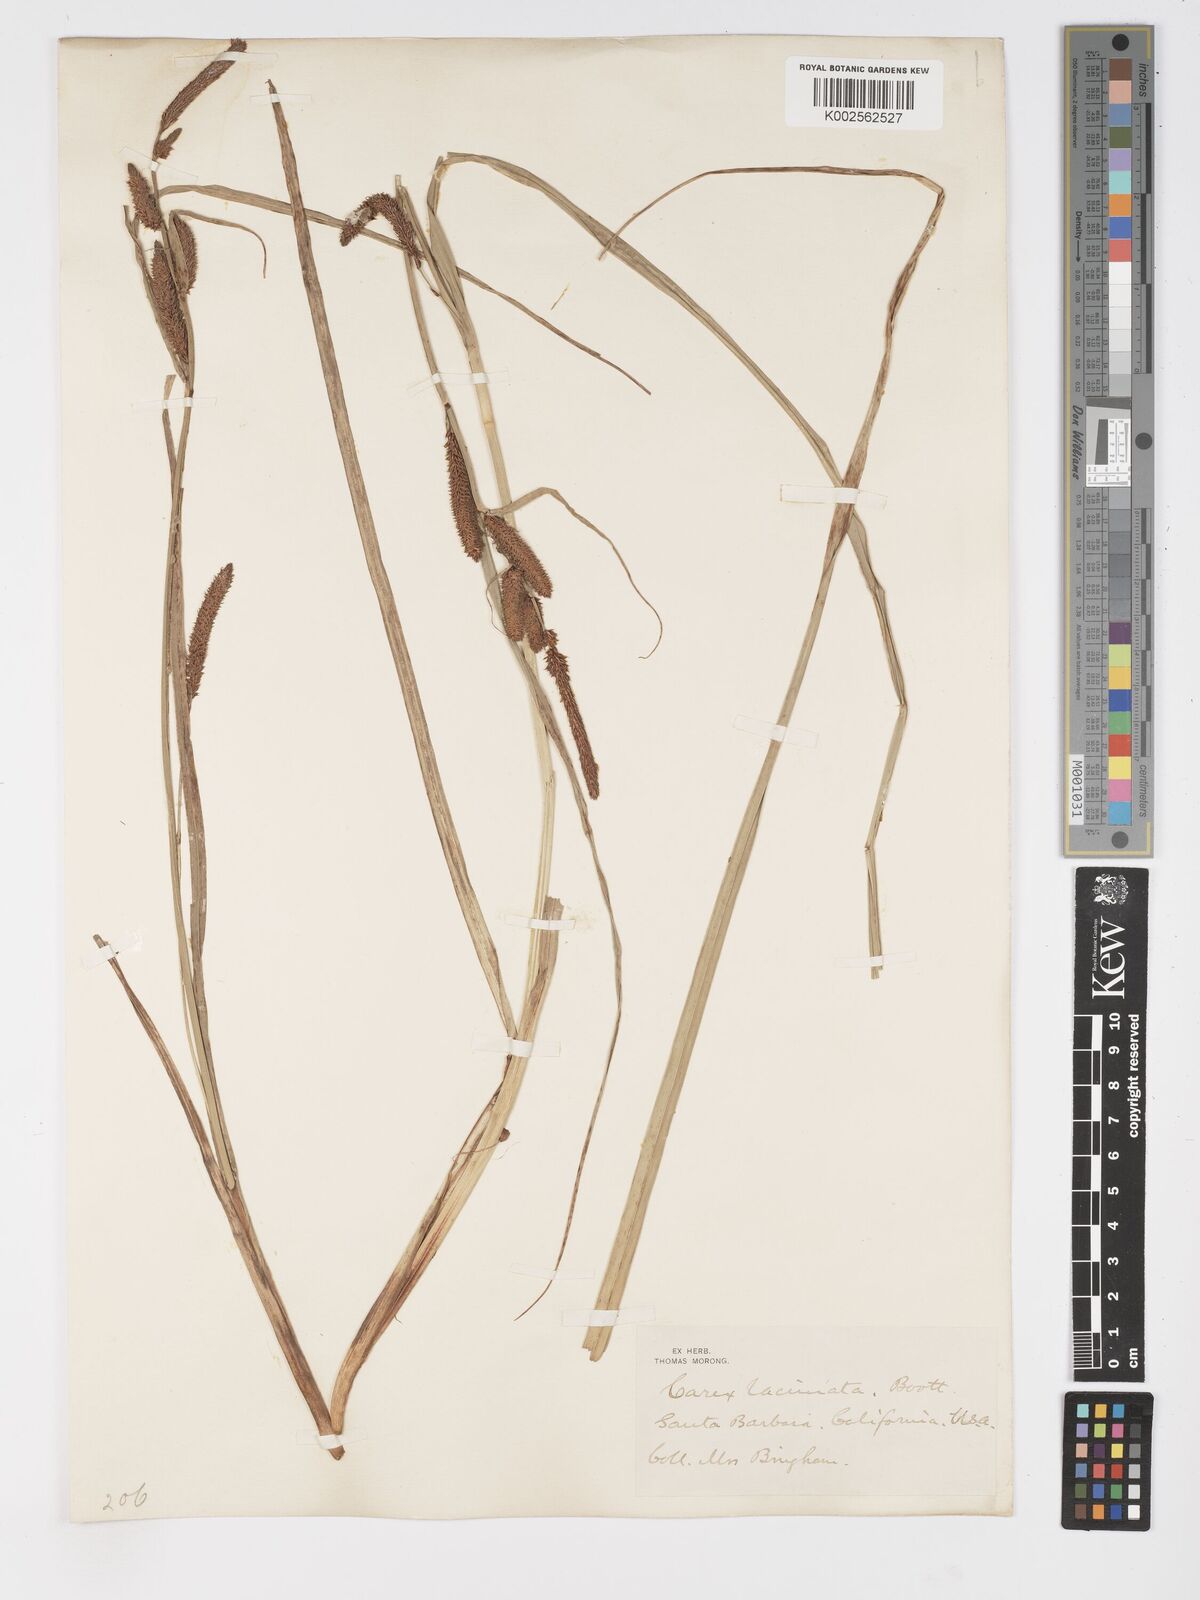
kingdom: Plantae
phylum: Tracheophyta
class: Liliopsida
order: Poales
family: Cyperaceae
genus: Carex
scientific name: Carex barbarae
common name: Santa barbara sedge
